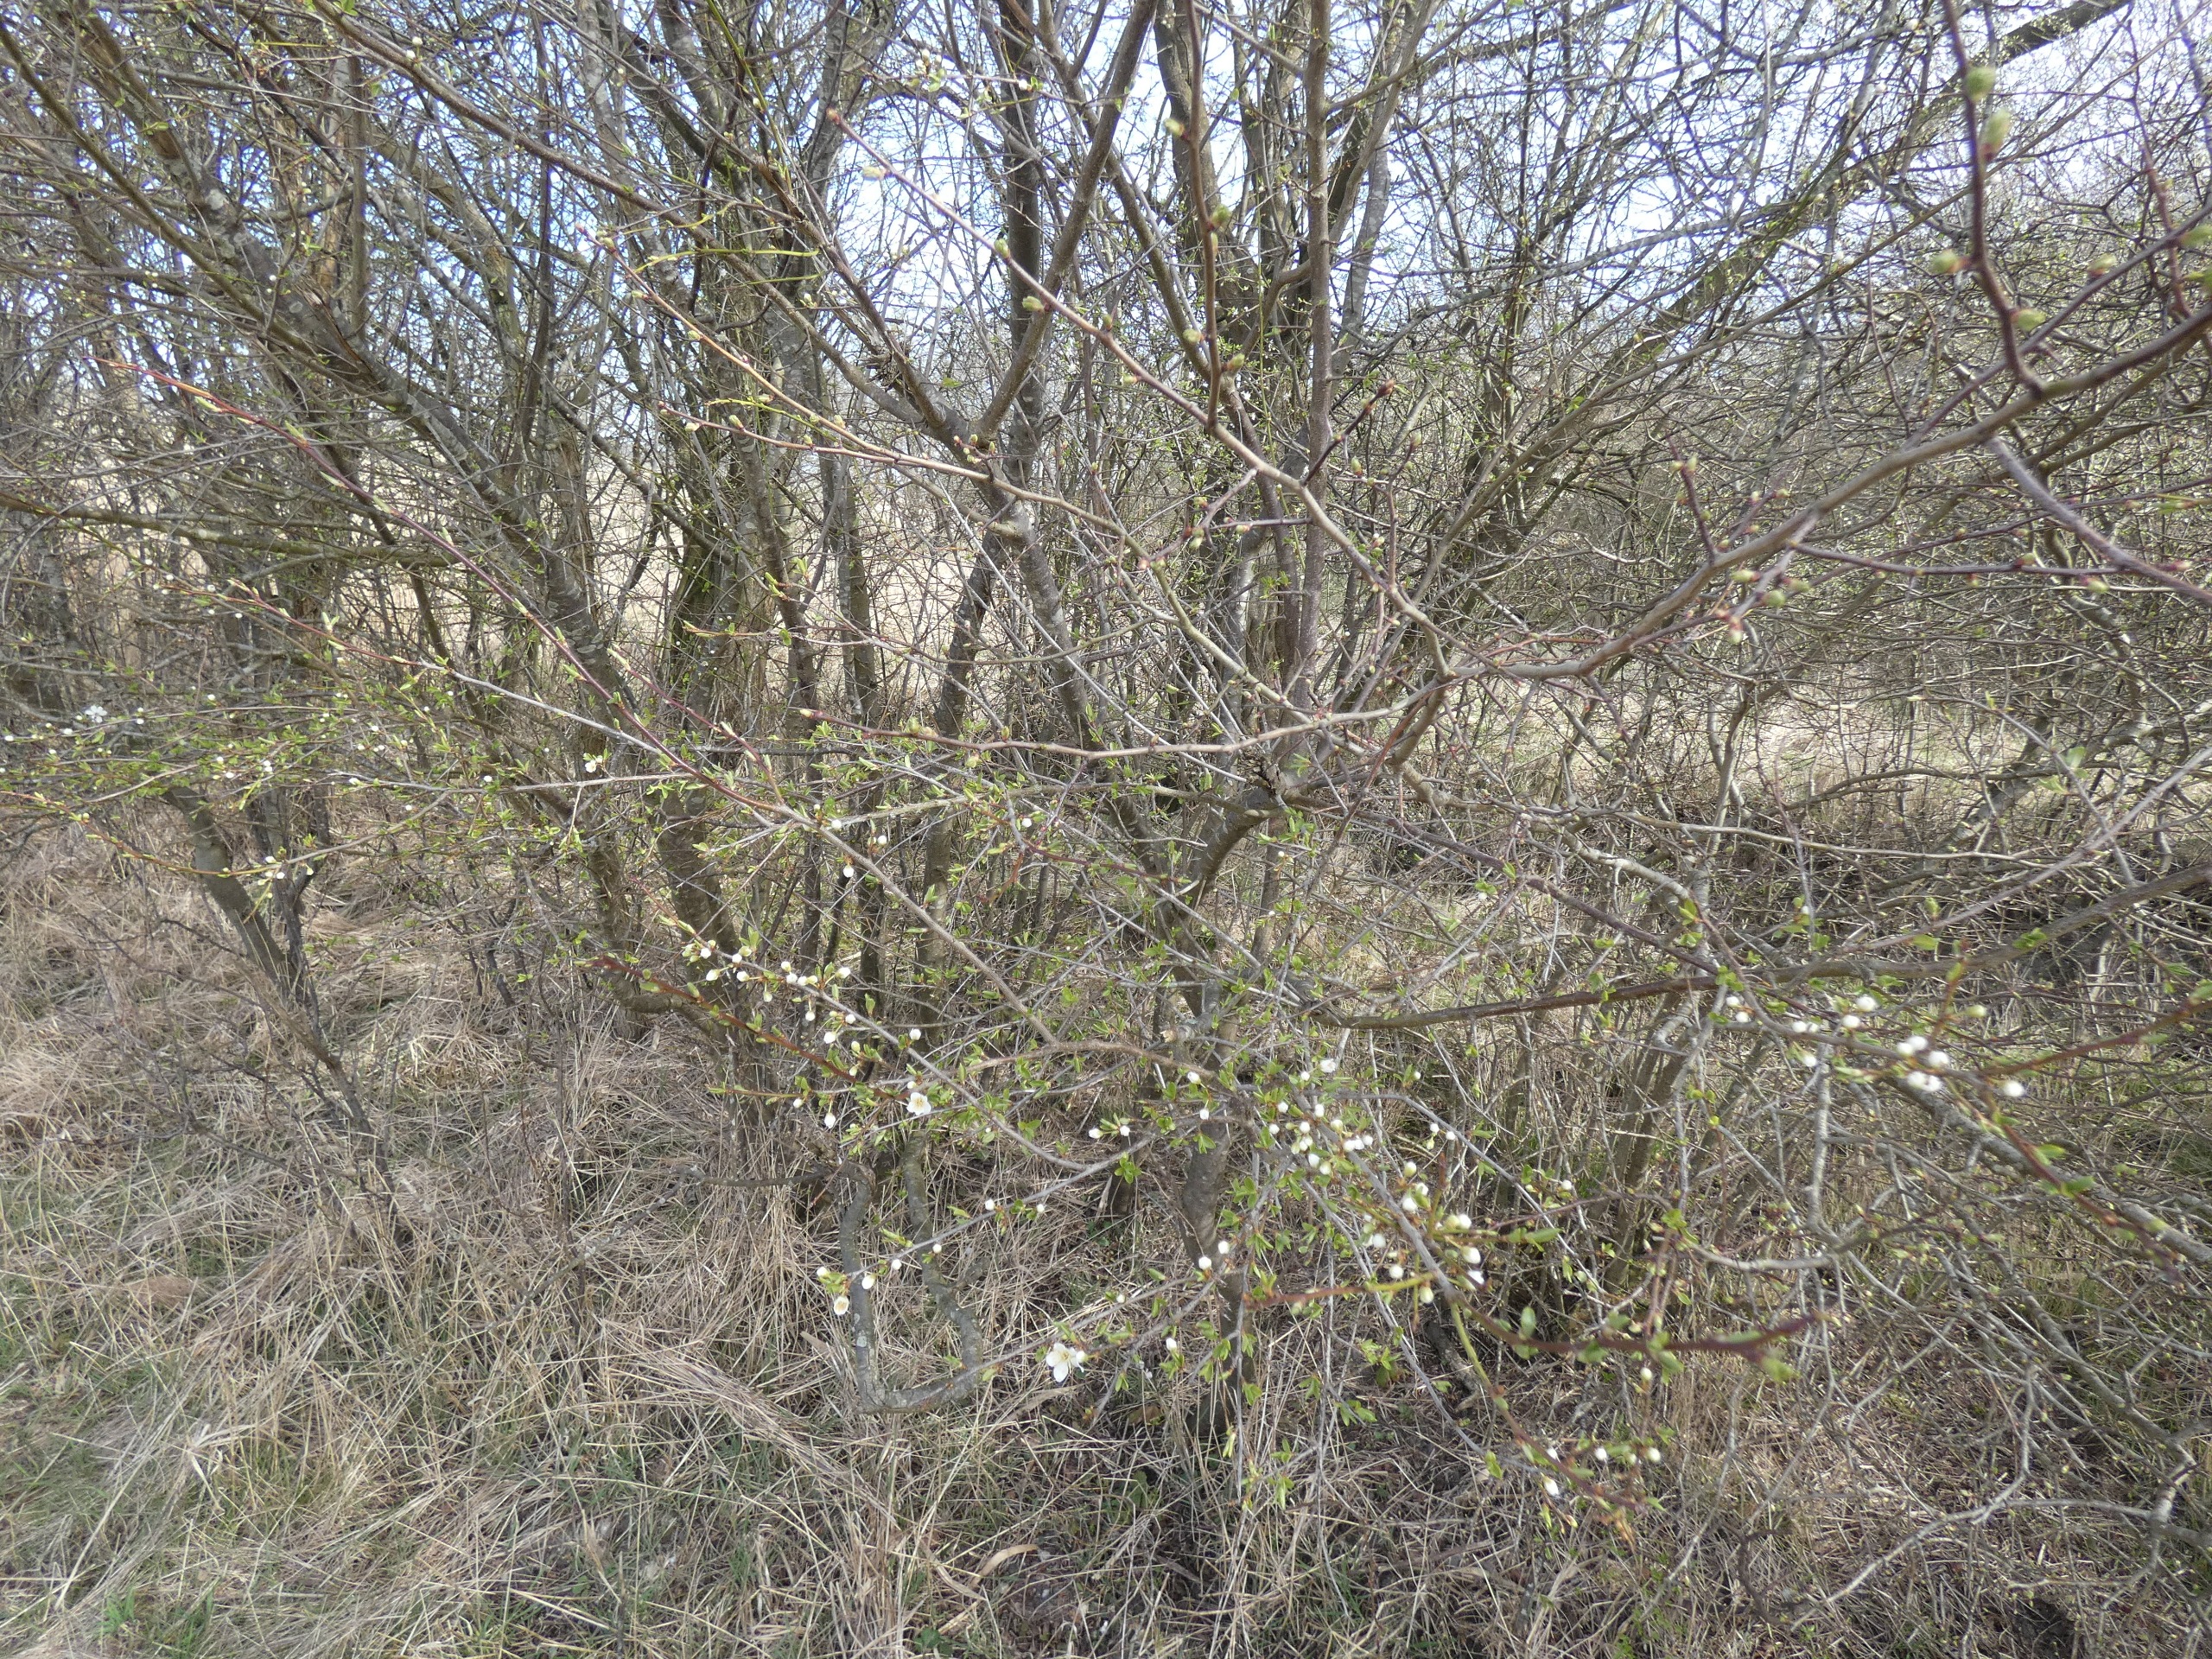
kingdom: Plantae
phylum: Tracheophyta
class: Magnoliopsida
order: Rosales
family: Rosaceae
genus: Prunus
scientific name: Prunus cerasifera
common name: Mirabel
